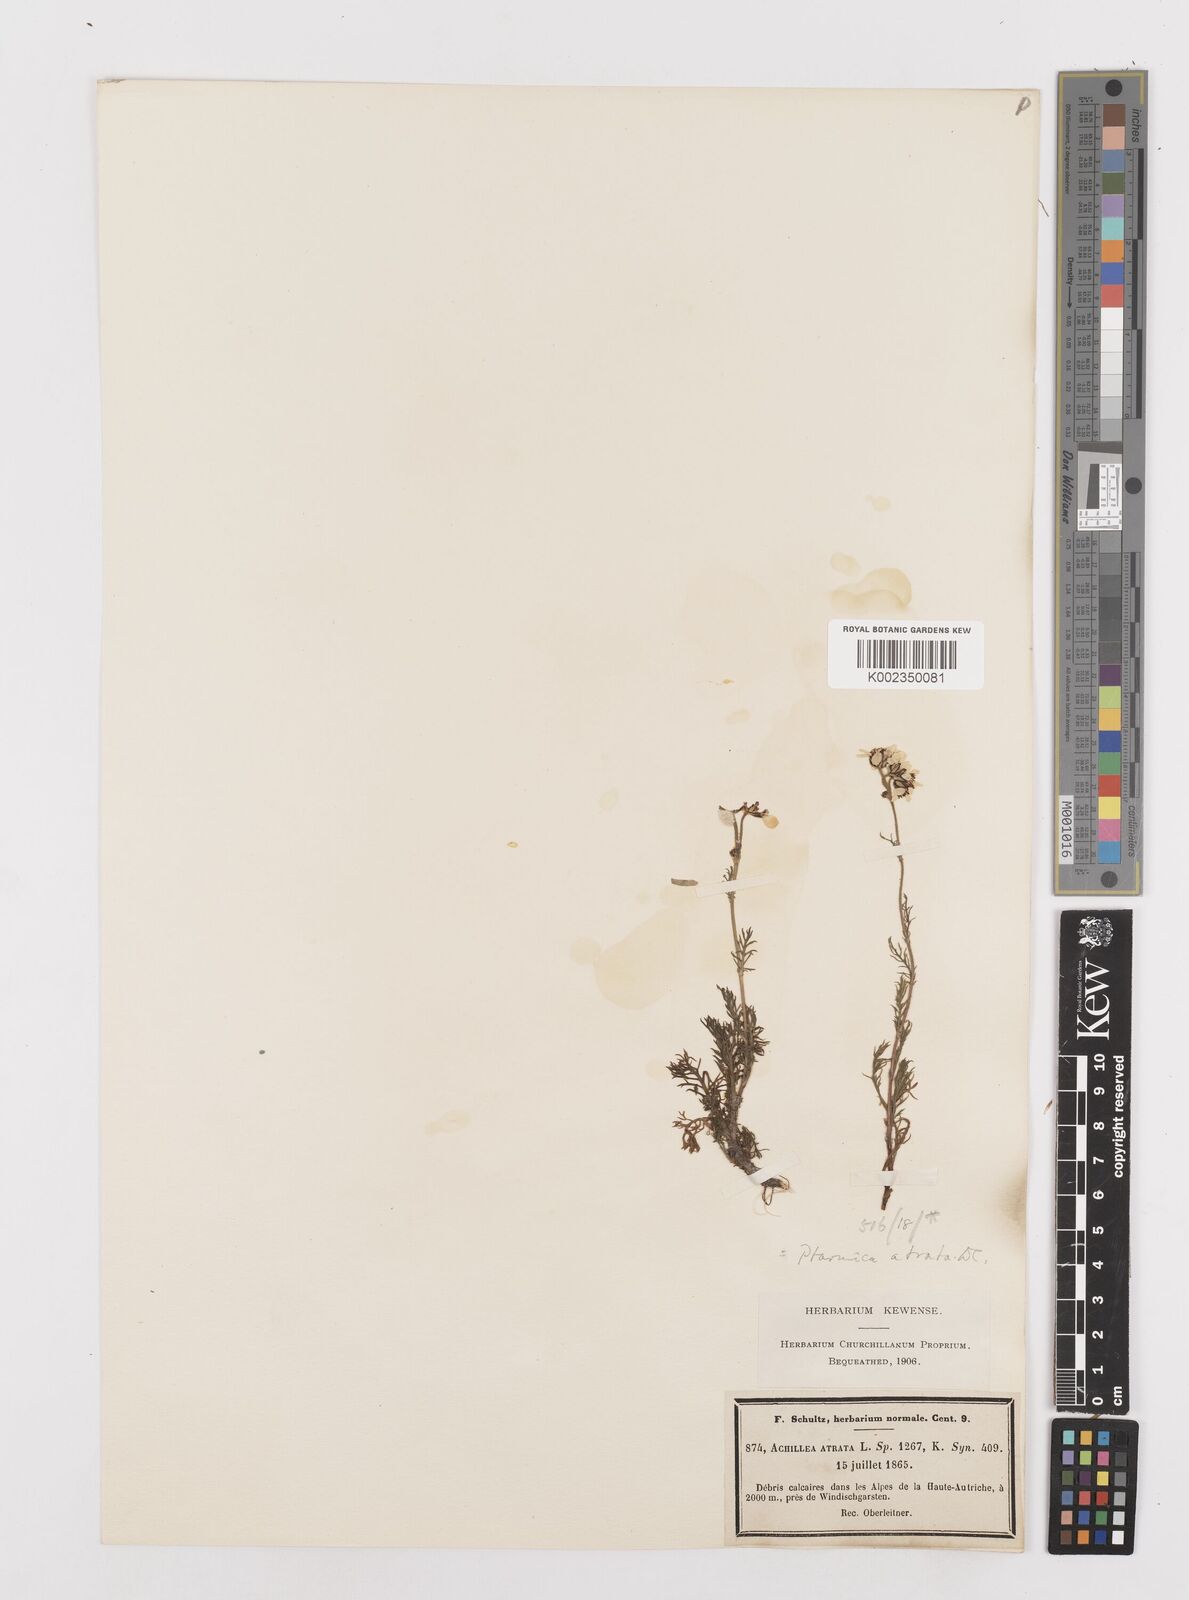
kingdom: Plantae
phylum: Tracheophyta
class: Magnoliopsida
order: Asterales
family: Asteraceae
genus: Achillea
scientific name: Achillea atrata
